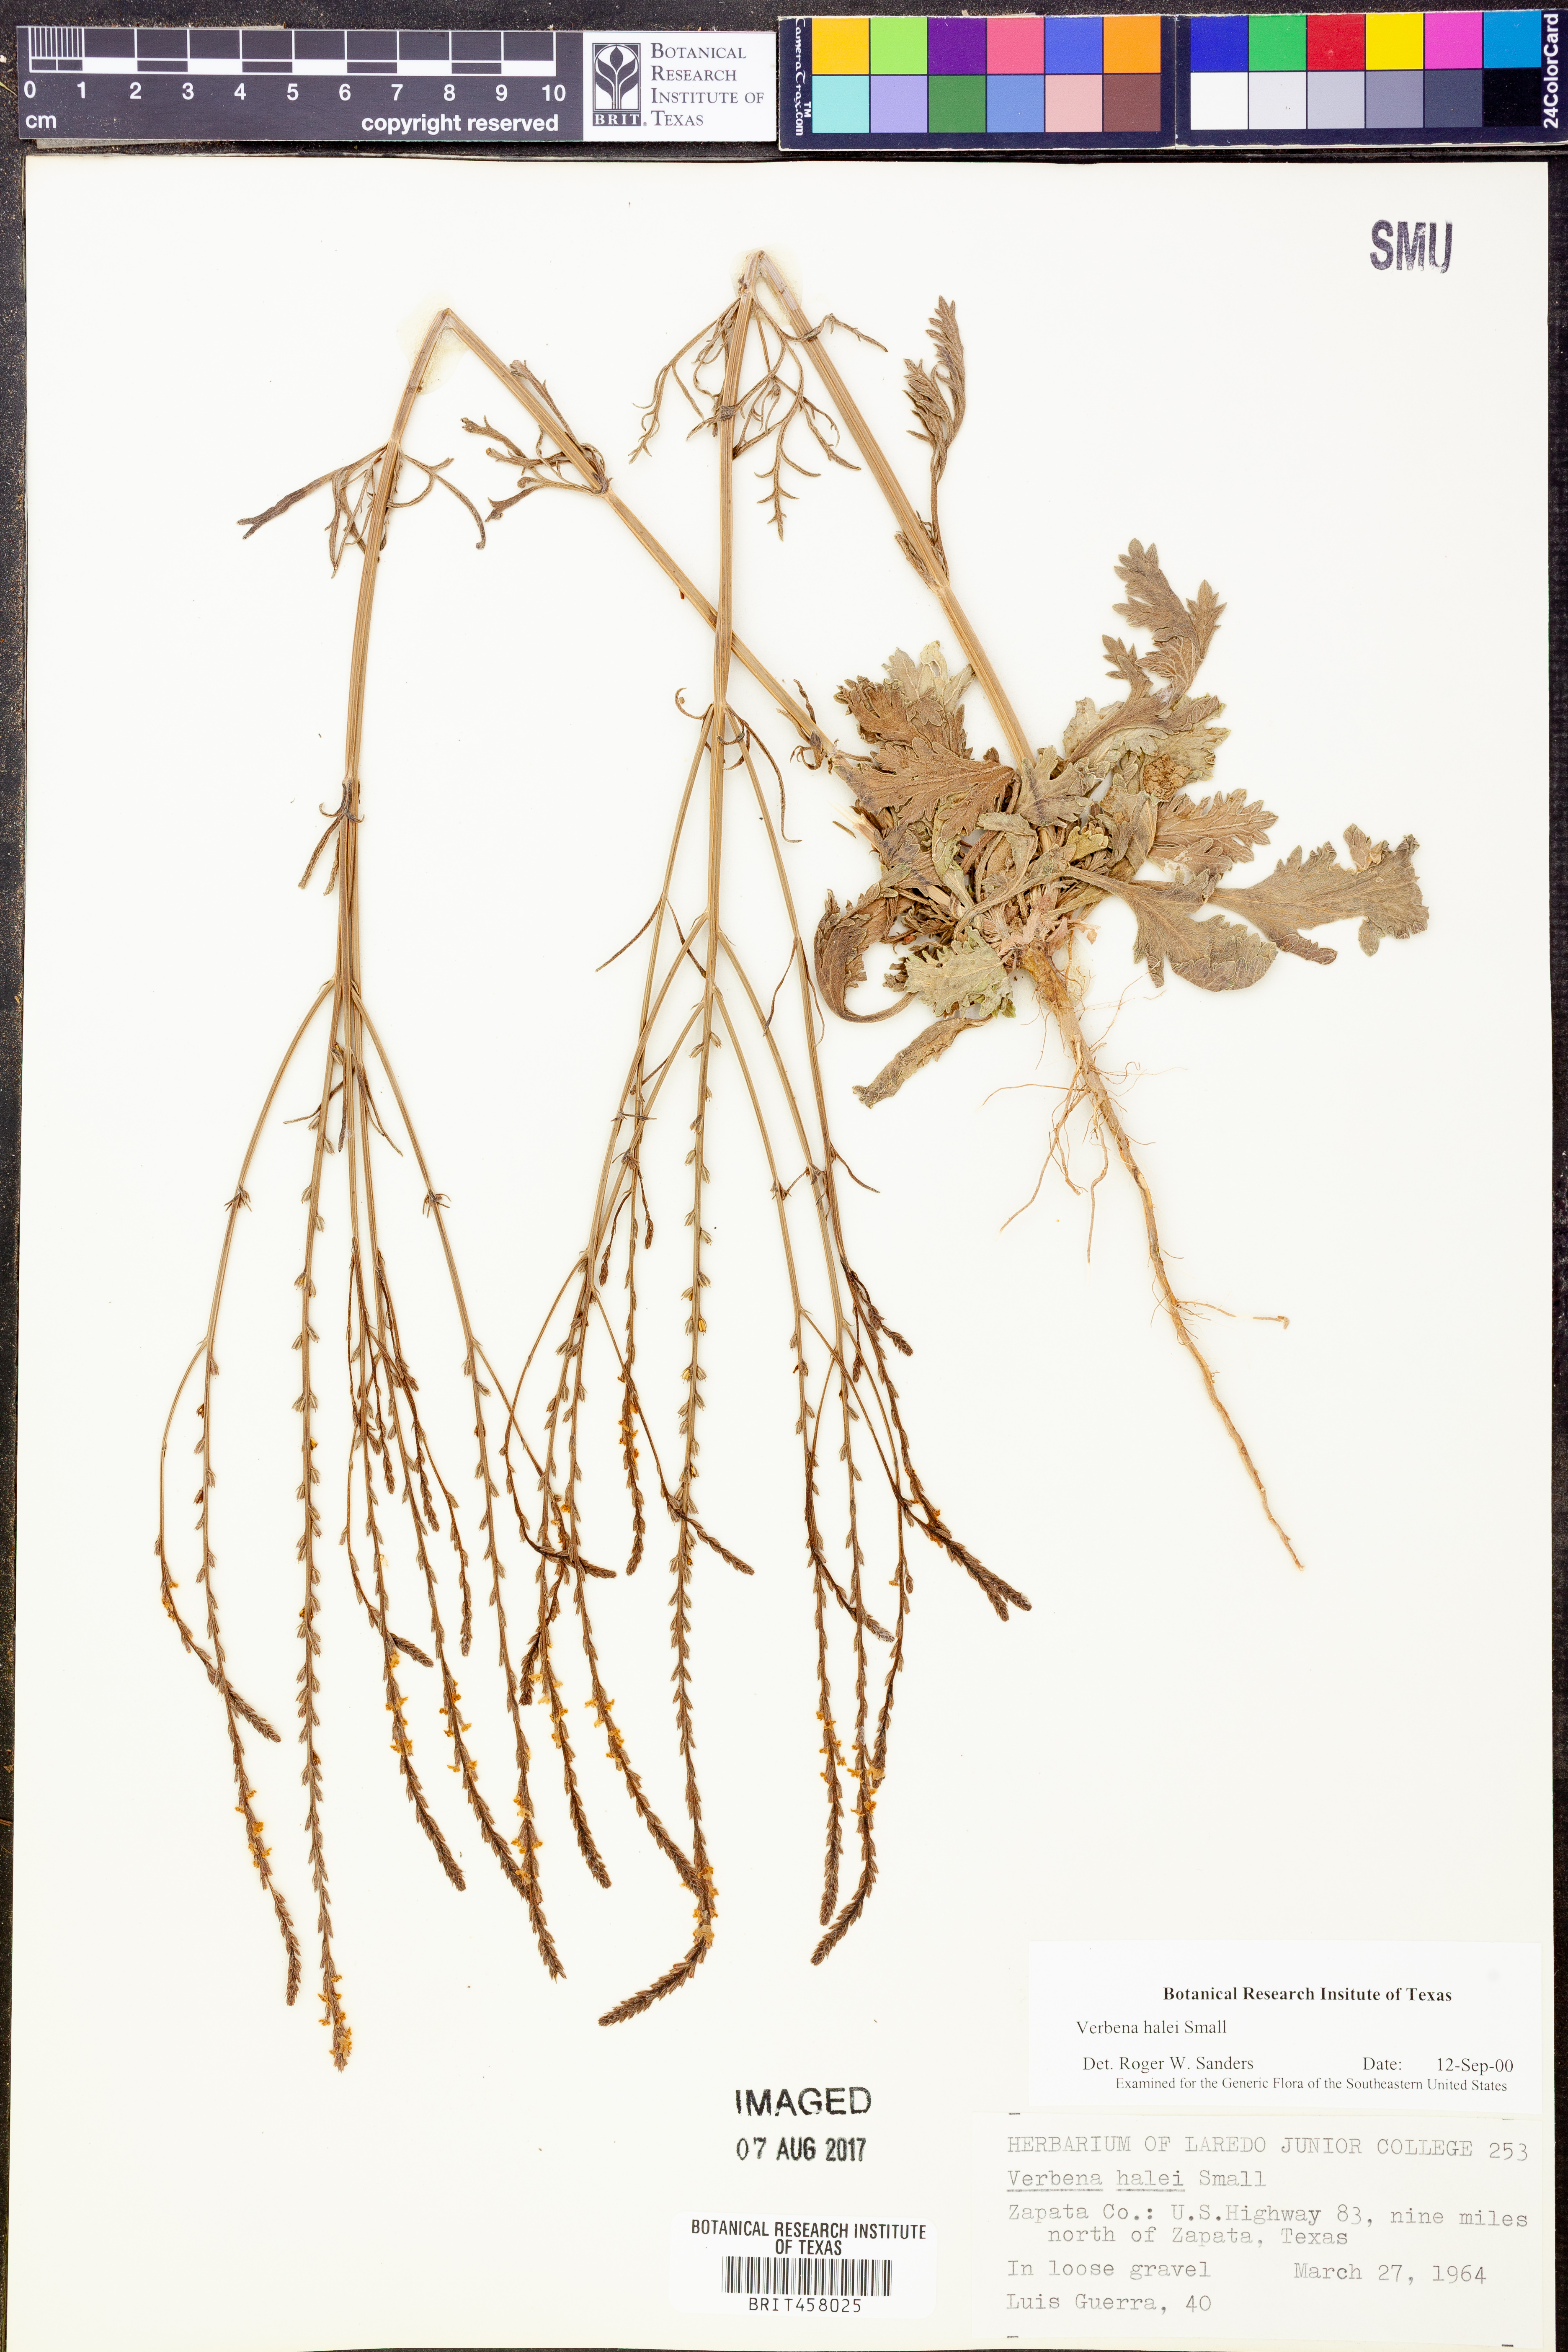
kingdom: Plantae
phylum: Tracheophyta
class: Magnoliopsida
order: Lamiales
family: Verbenaceae
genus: Verbena
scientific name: Verbena halei
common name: Texas vervain
